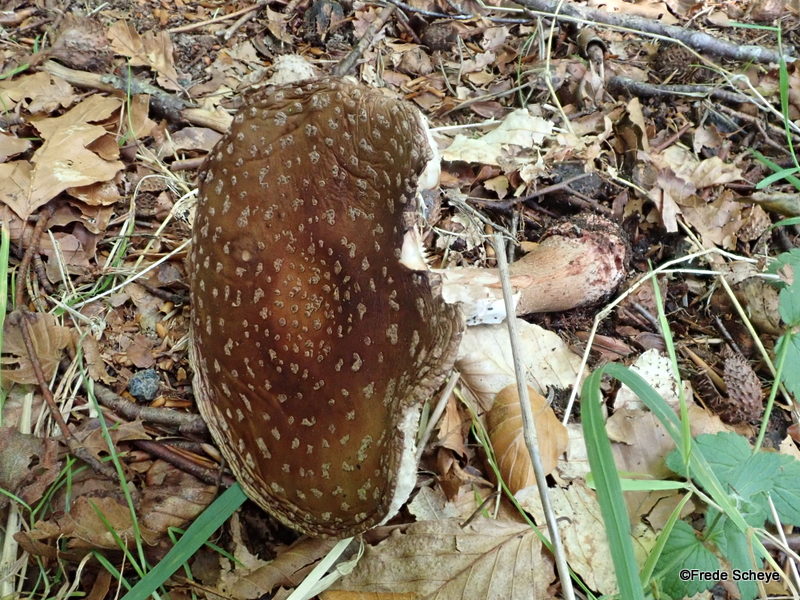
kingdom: Fungi
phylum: Basidiomycota
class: Agaricomycetes
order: Agaricales
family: Amanitaceae
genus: Amanita
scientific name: Amanita rubescens
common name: rødmende fluesvamp
